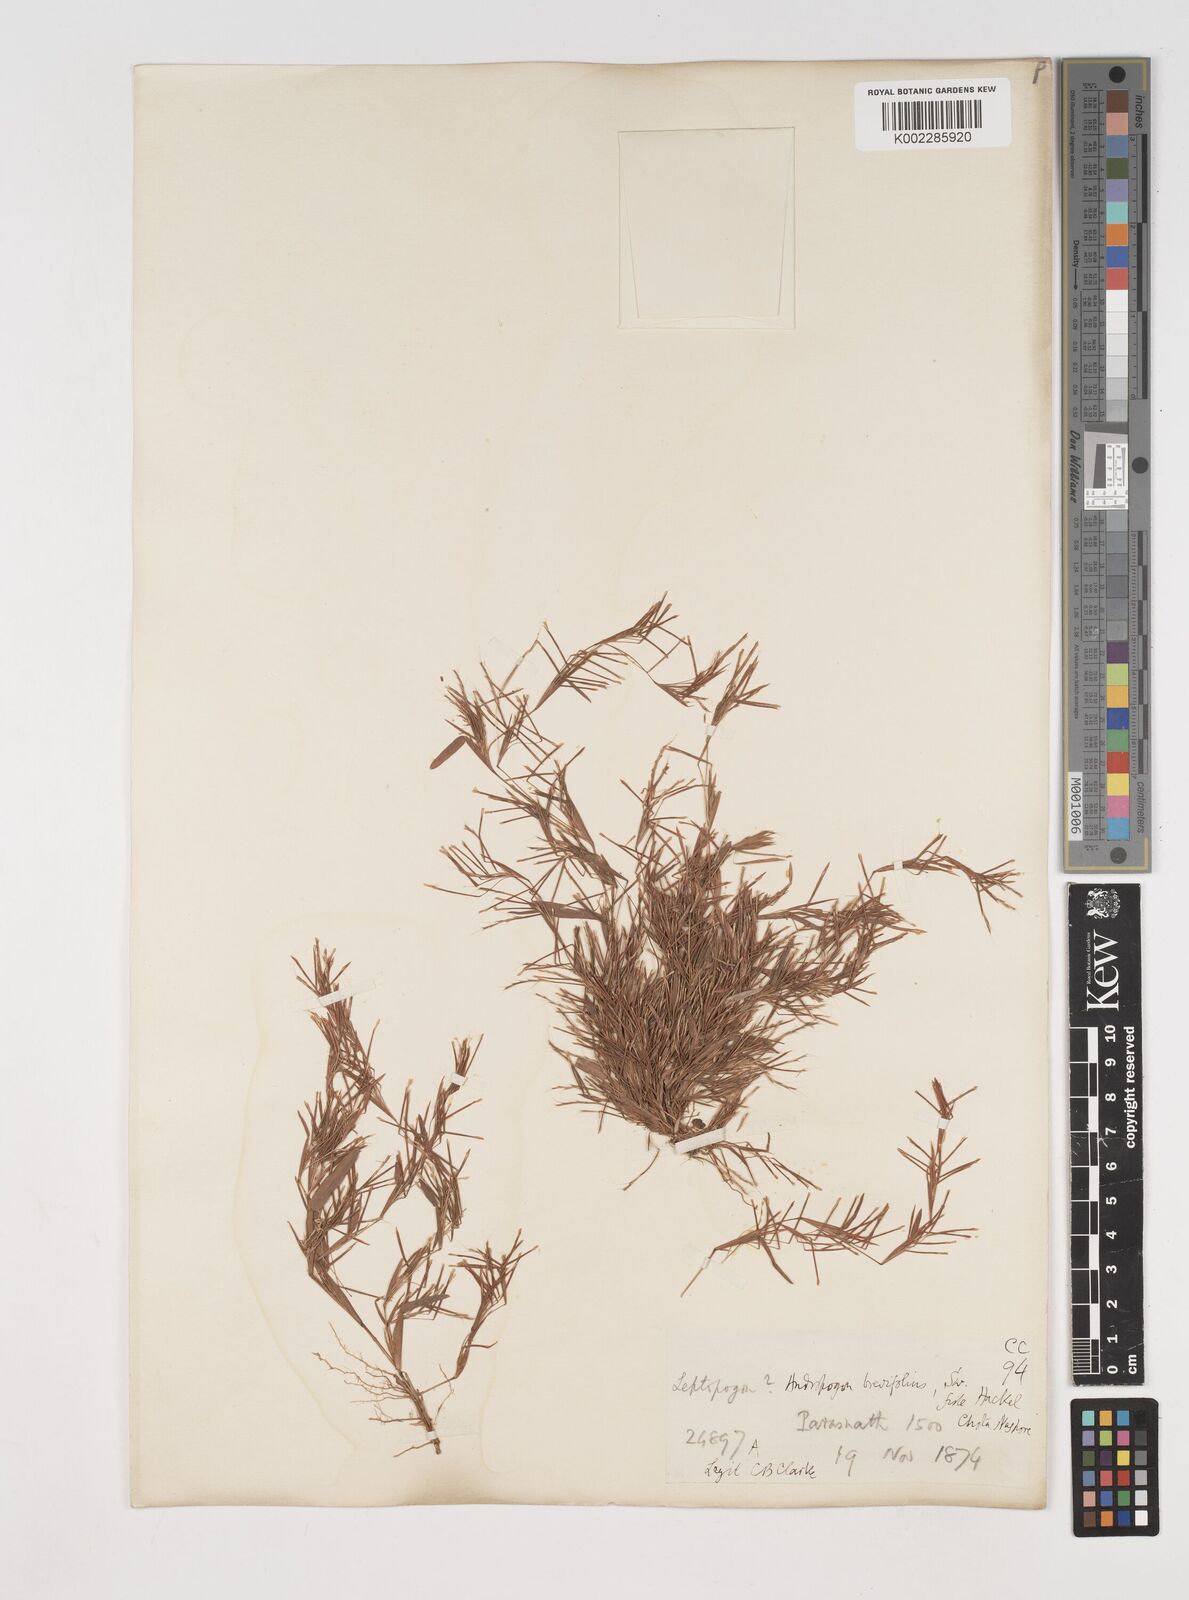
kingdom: Plantae
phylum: Tracheophyta
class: Liliopsida
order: Poales
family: Poaceae
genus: Schizachyrium
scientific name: Schizachyrium brevifolium
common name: Serillo dulce
